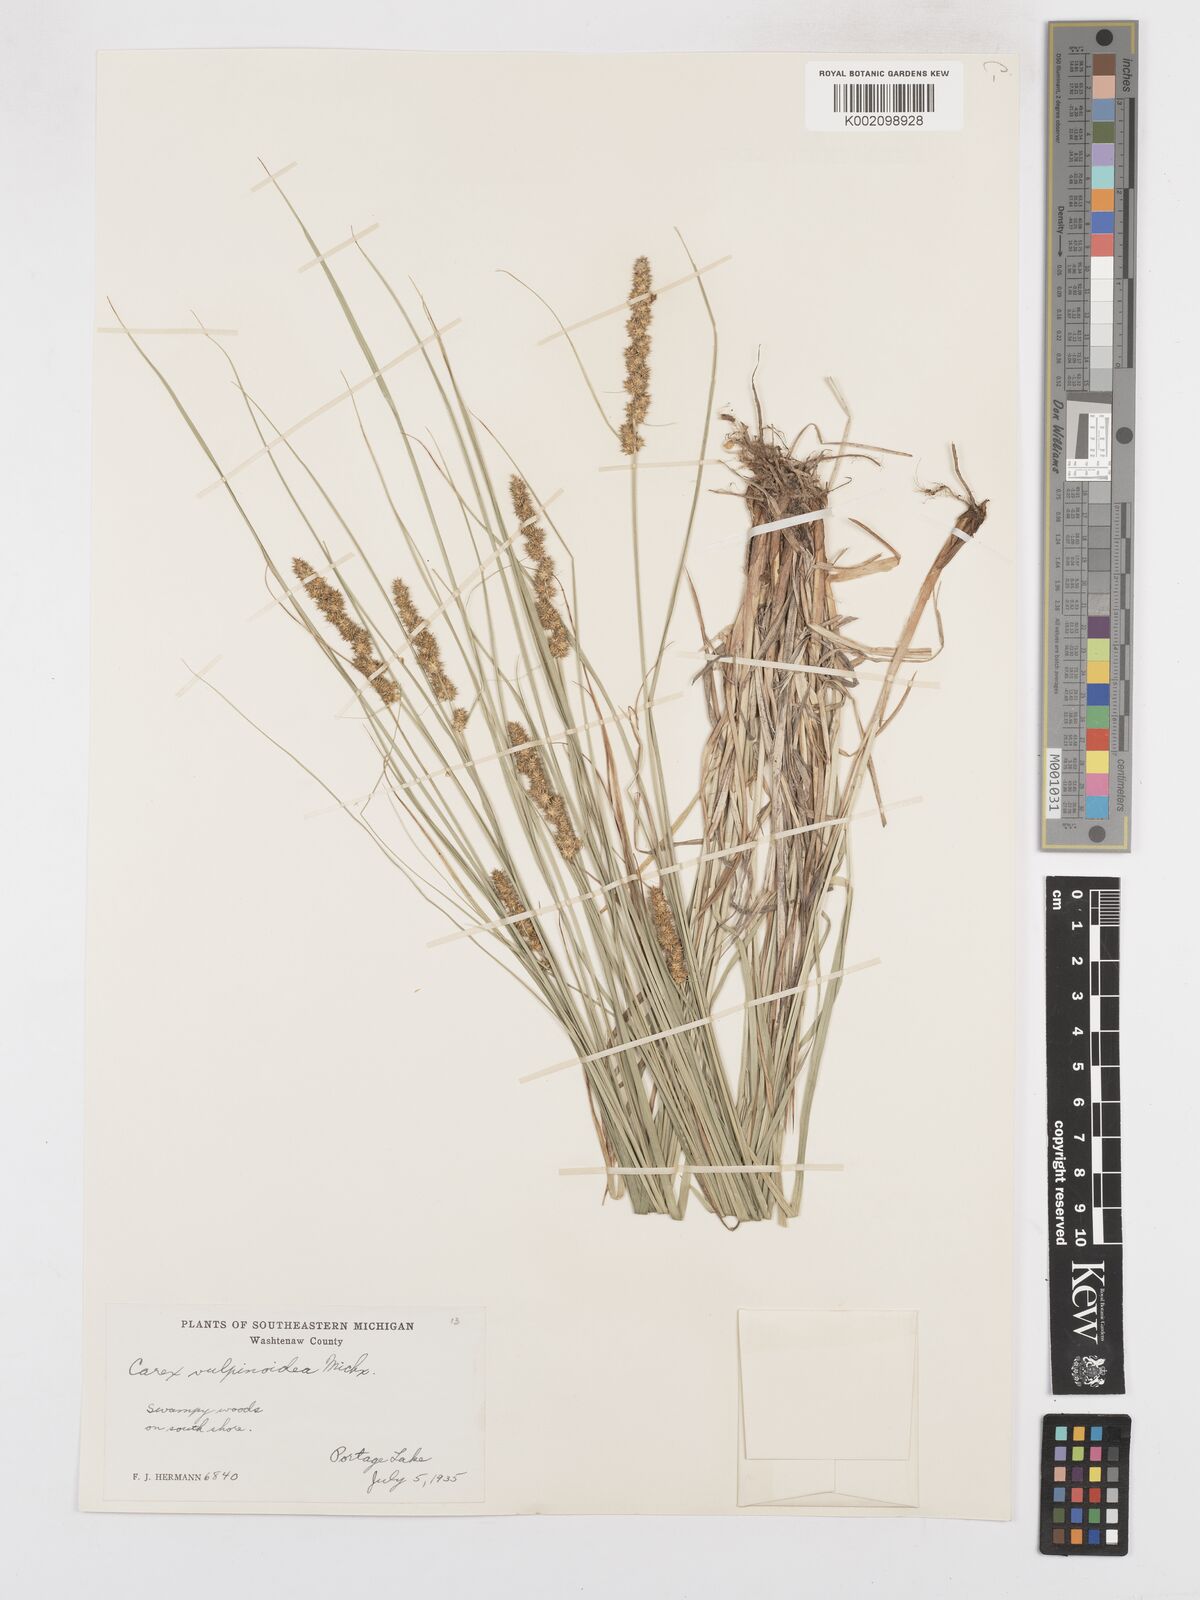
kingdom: Plantae
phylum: Tracheophyta
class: Liliopsida
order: Poales
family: Cyperaceae
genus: Carex
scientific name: Carex vulpinoidea
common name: American fox-sedge
